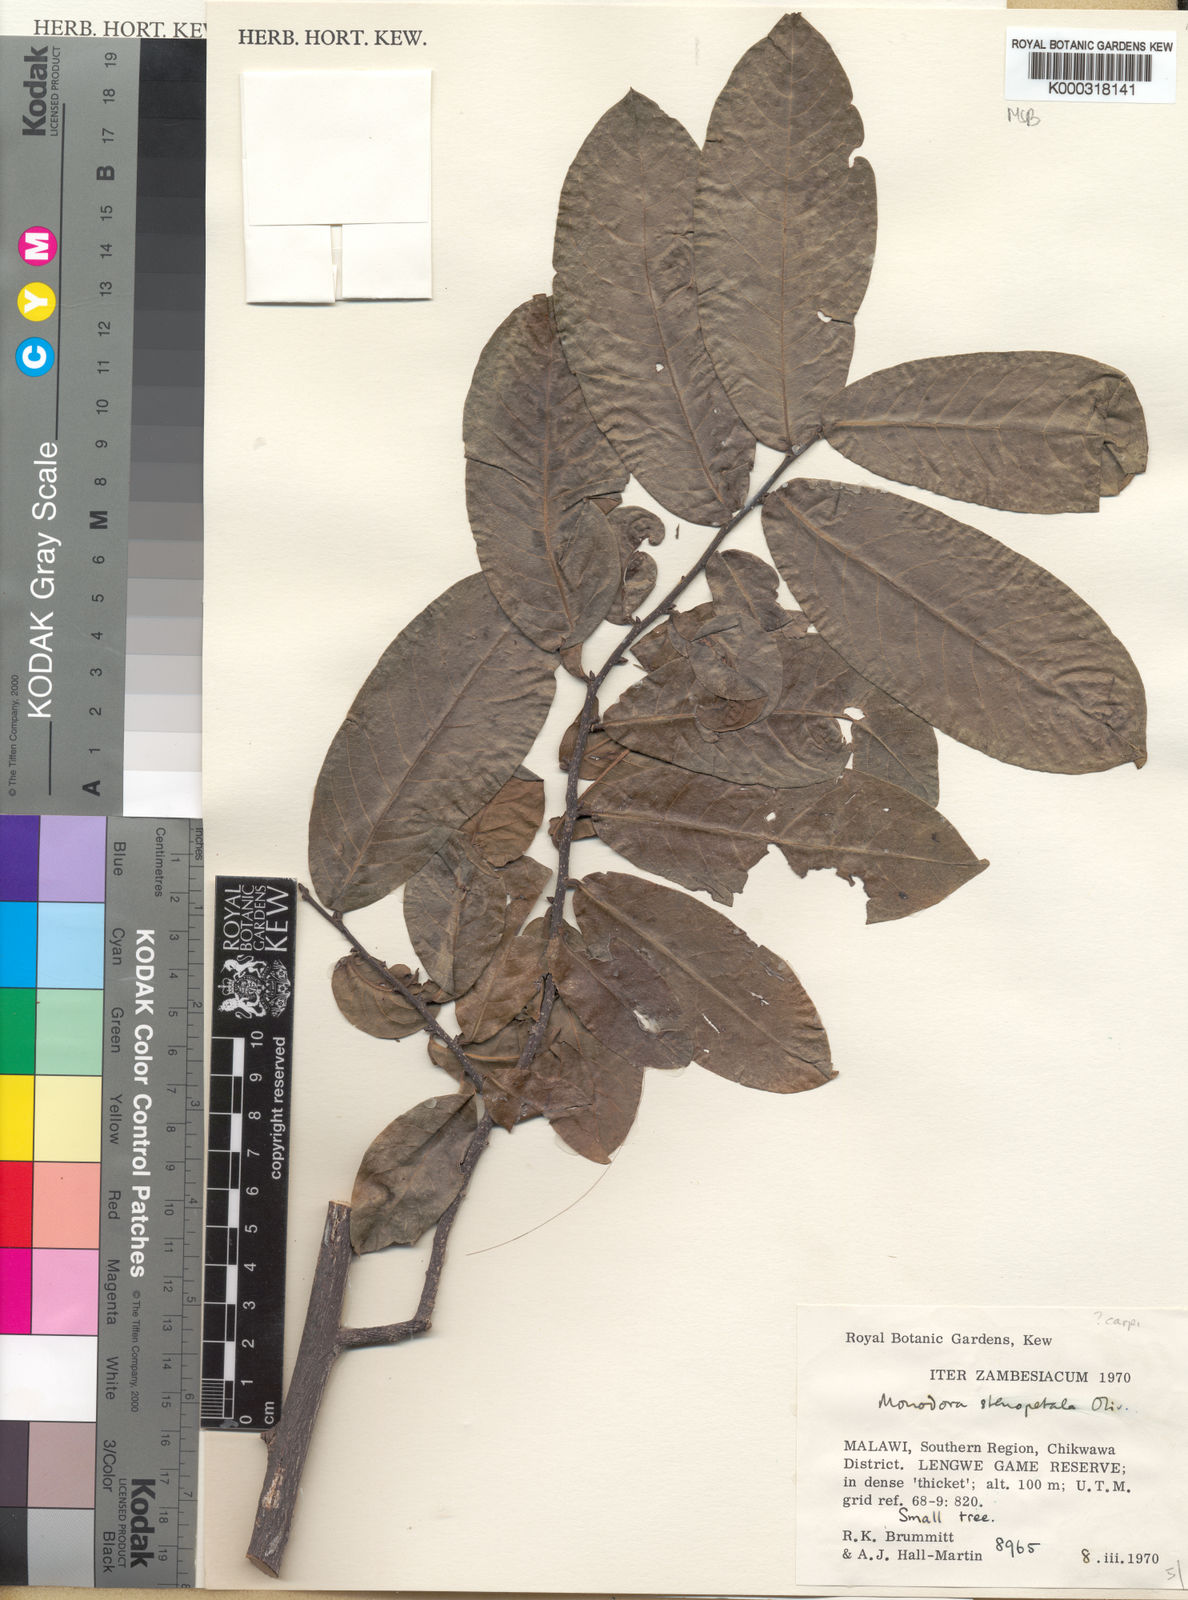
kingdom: Plantae
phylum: Tracheophyta
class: Magnoliopsida
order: Magnoliales
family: Annonaceae
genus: Monodora
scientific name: Monodora stenopetala
